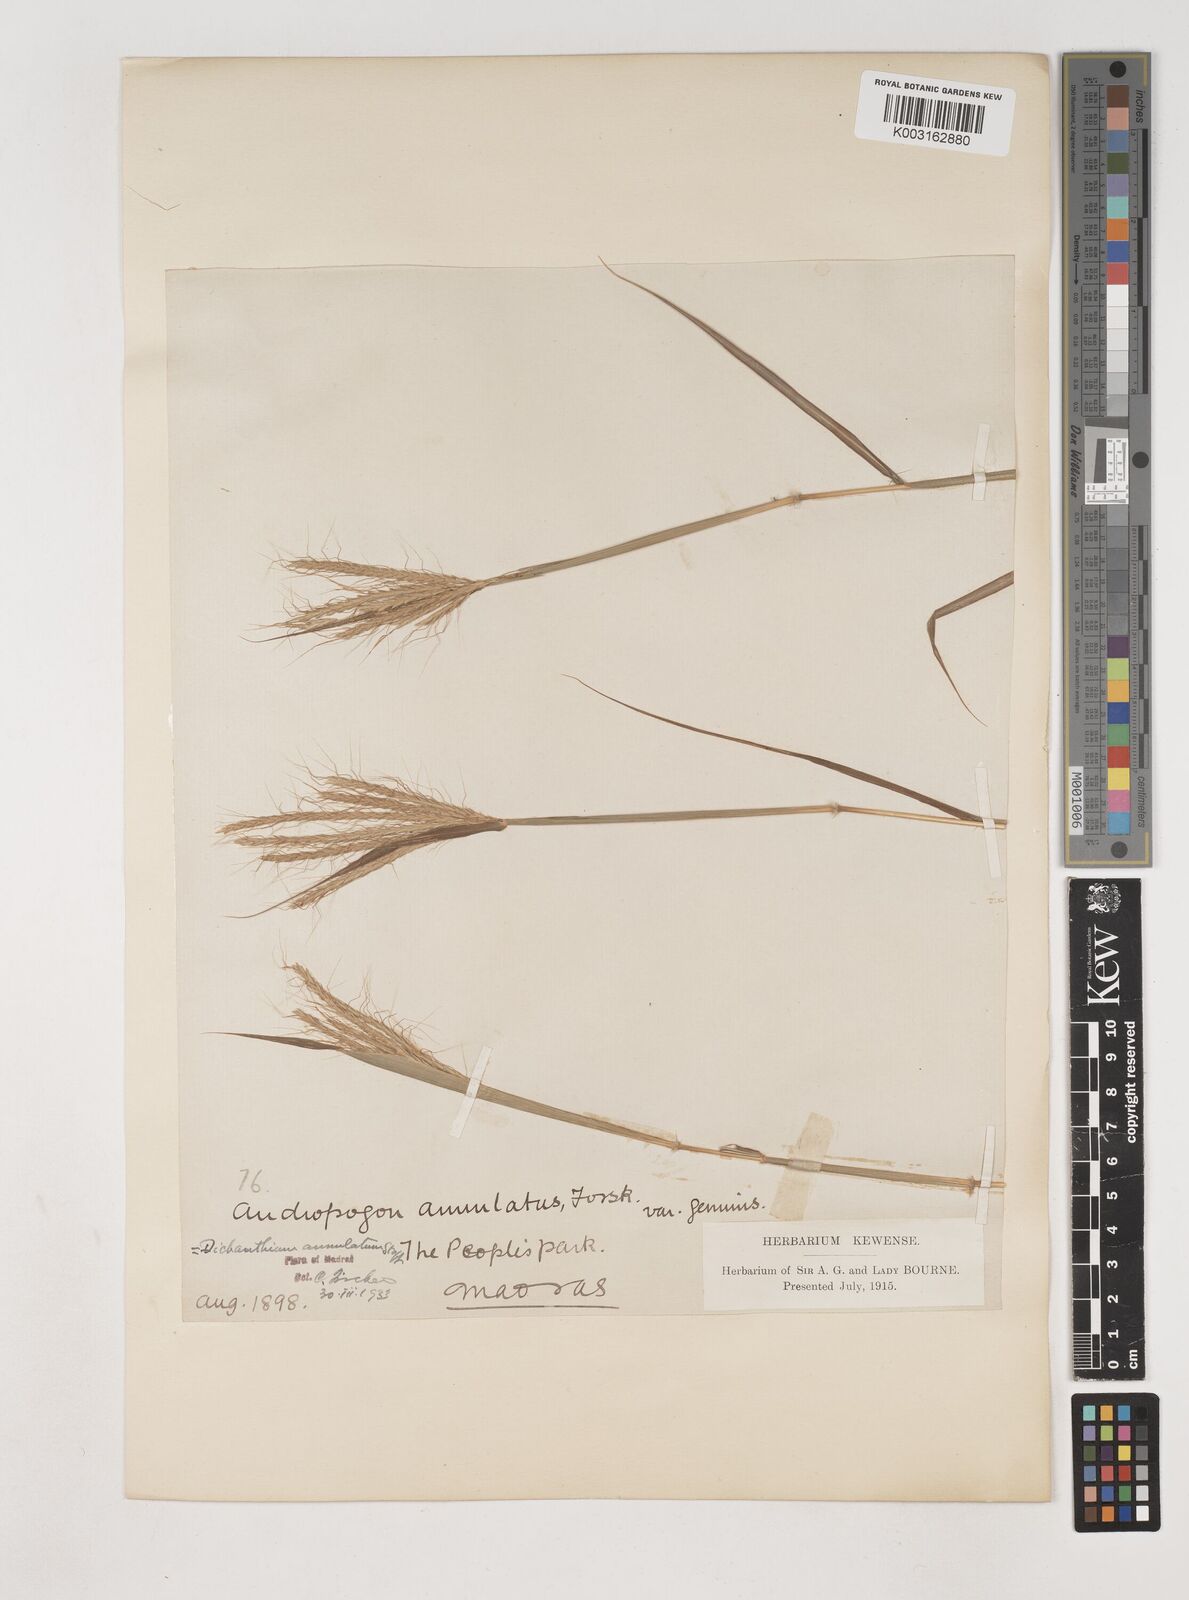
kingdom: Plantae
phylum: Tracheophyta
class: Liliopsida
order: Poales
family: Poaceae
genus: Dichanthium
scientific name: Dichanthium annulatum
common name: Kleberg's bluestem
